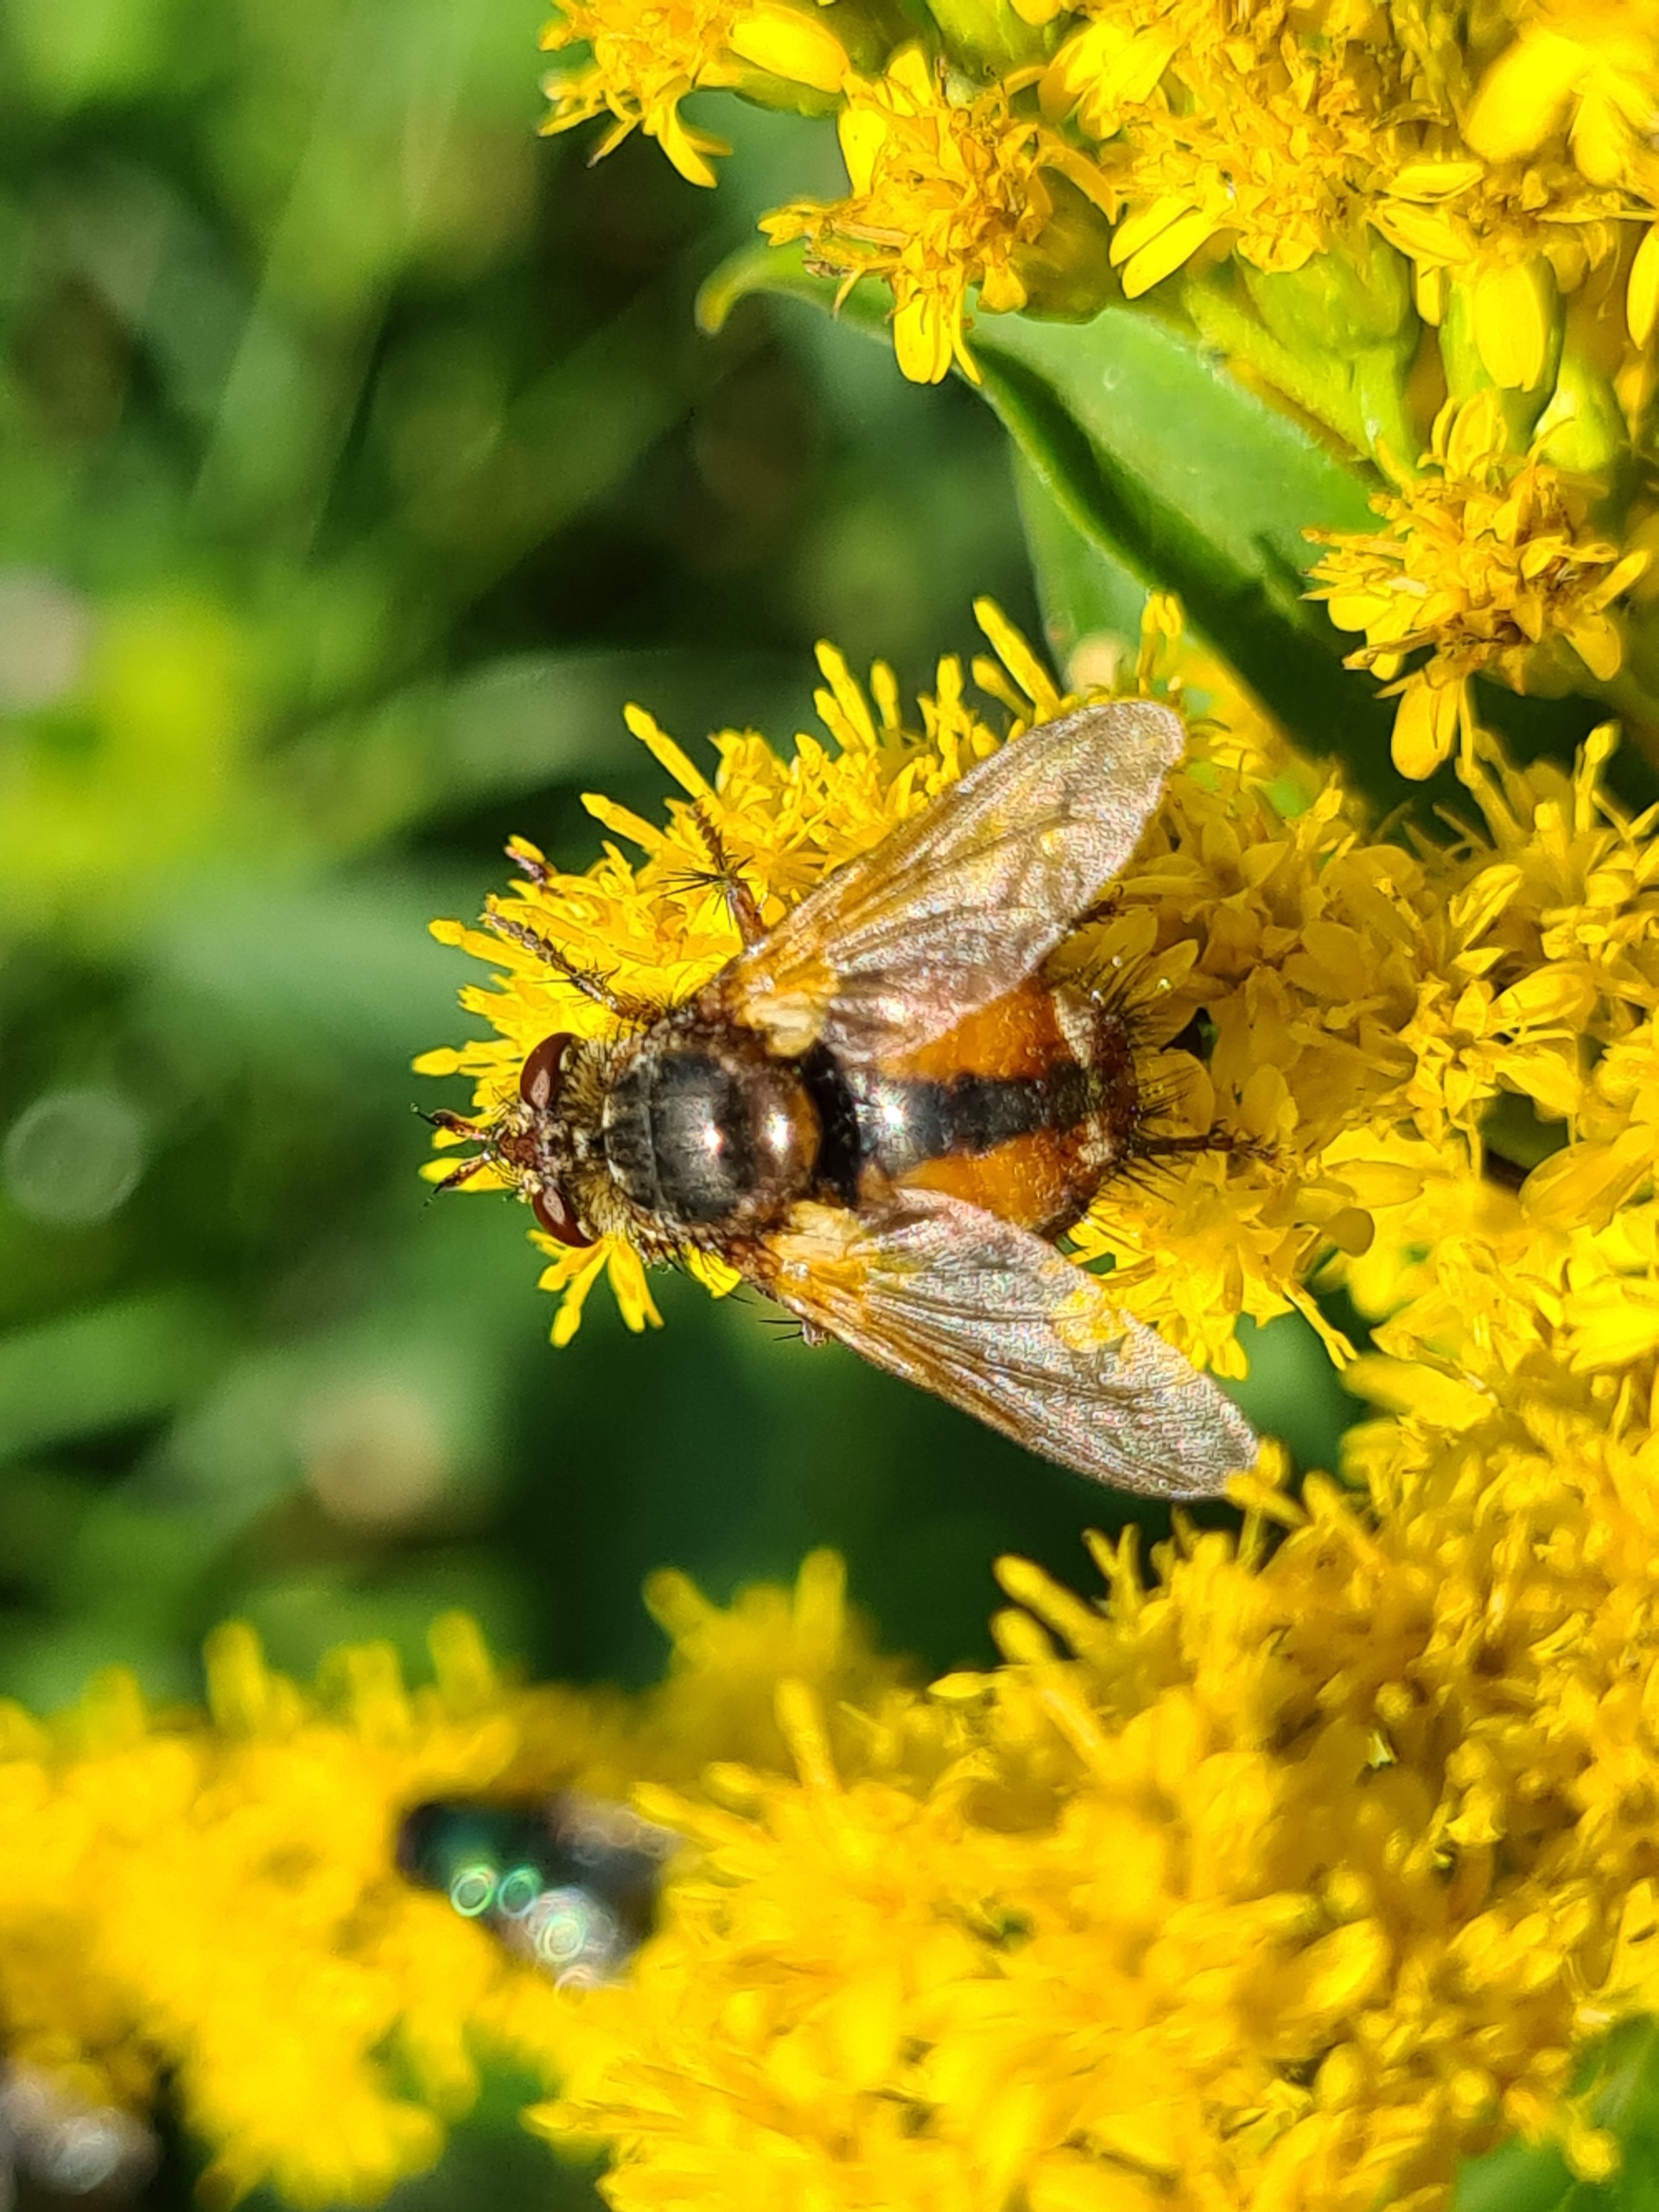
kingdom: Animalia
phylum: Arthropoda
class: Insecta
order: Diptera
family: Tachinidae
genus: Tachina
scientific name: Tachina fera
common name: Mellemfluen oskar
